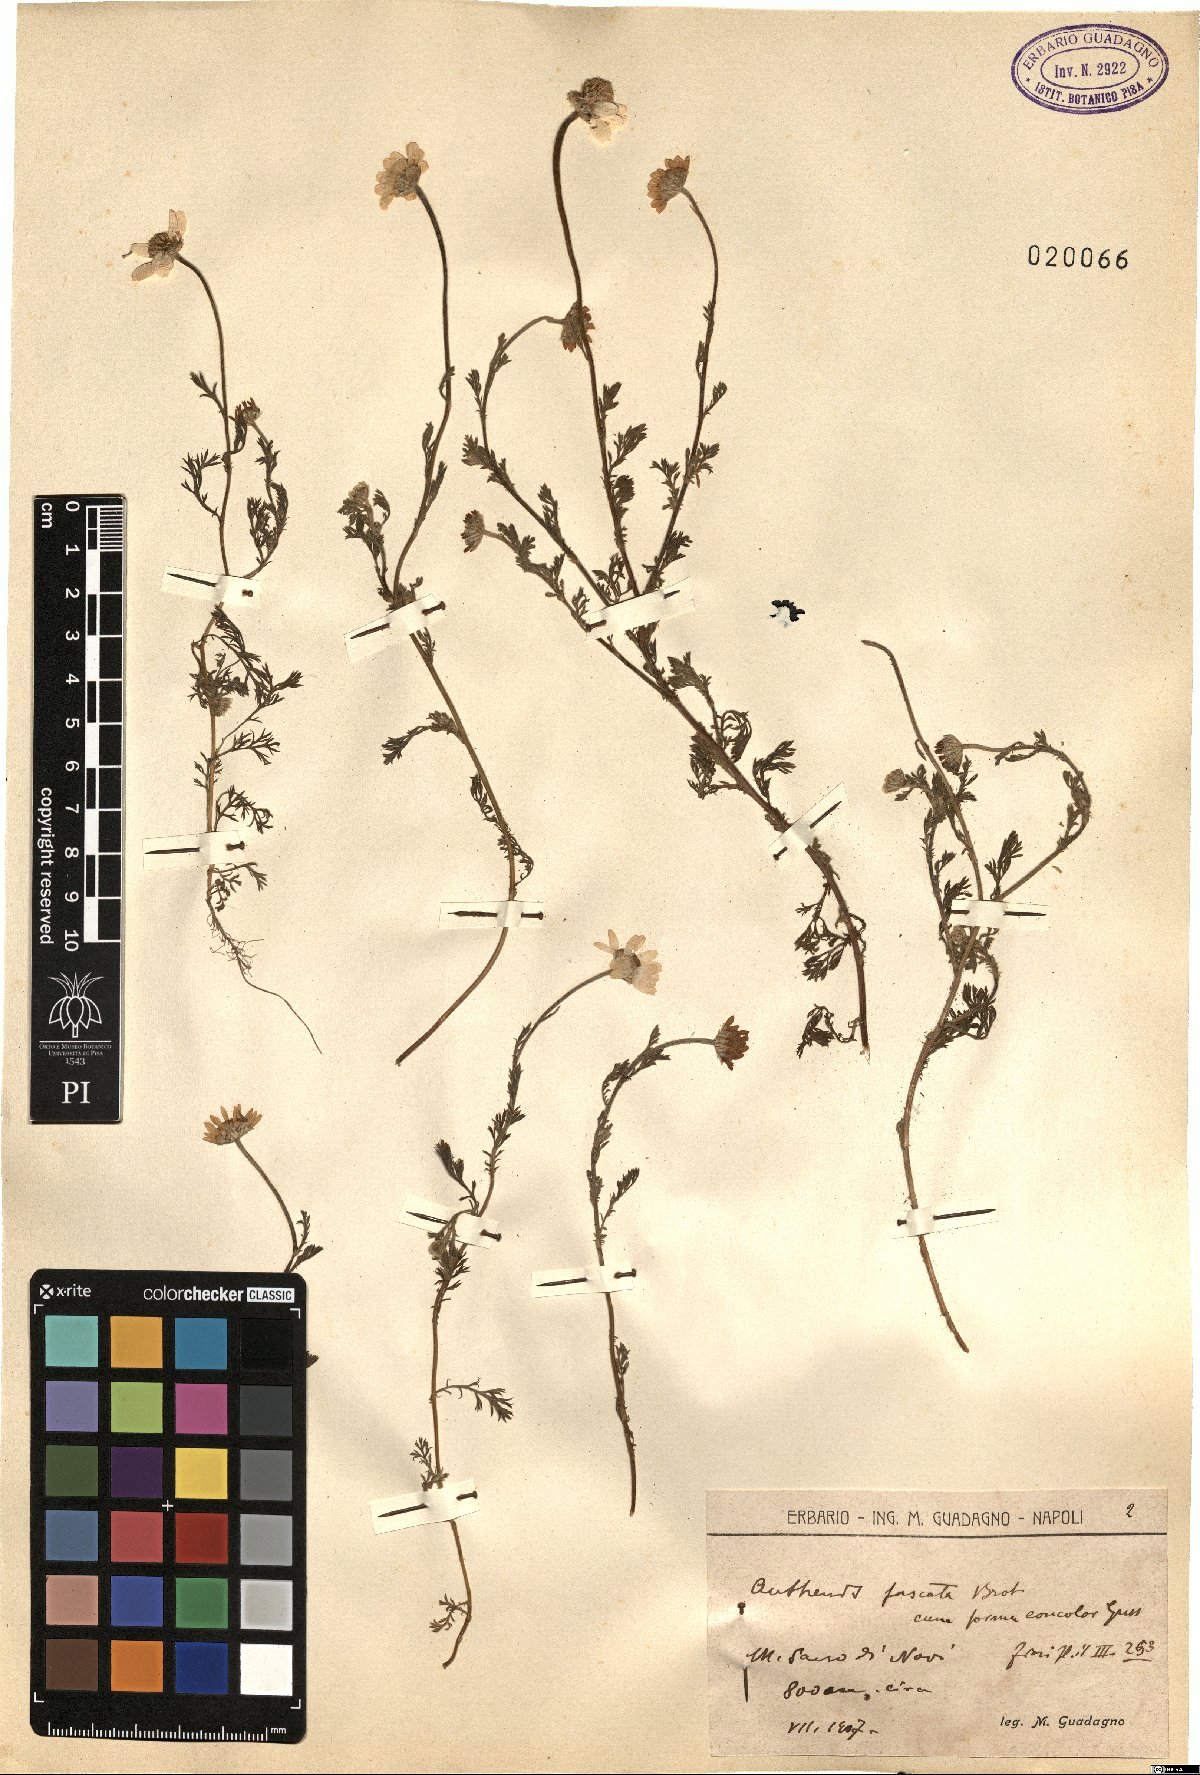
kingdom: Plantae
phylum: Tracheophyta
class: Magnoliopsida
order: Asterales
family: Asteraceae
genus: Chamaemelum
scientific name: Chamaemelum fuscatum
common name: Chamomile
